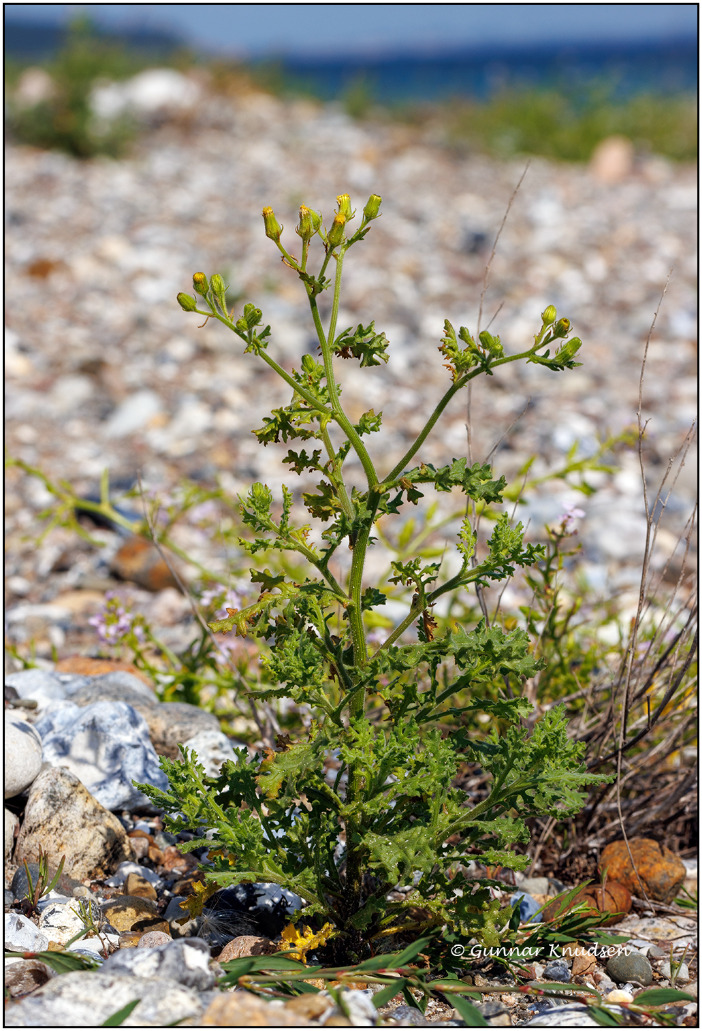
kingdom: Plantae
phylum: Tracheophyta
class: Magnoliopsida
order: Asterales
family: Asteraceae
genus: Senecio
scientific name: Senecio viscosus
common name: Klæbrig brandbæger
